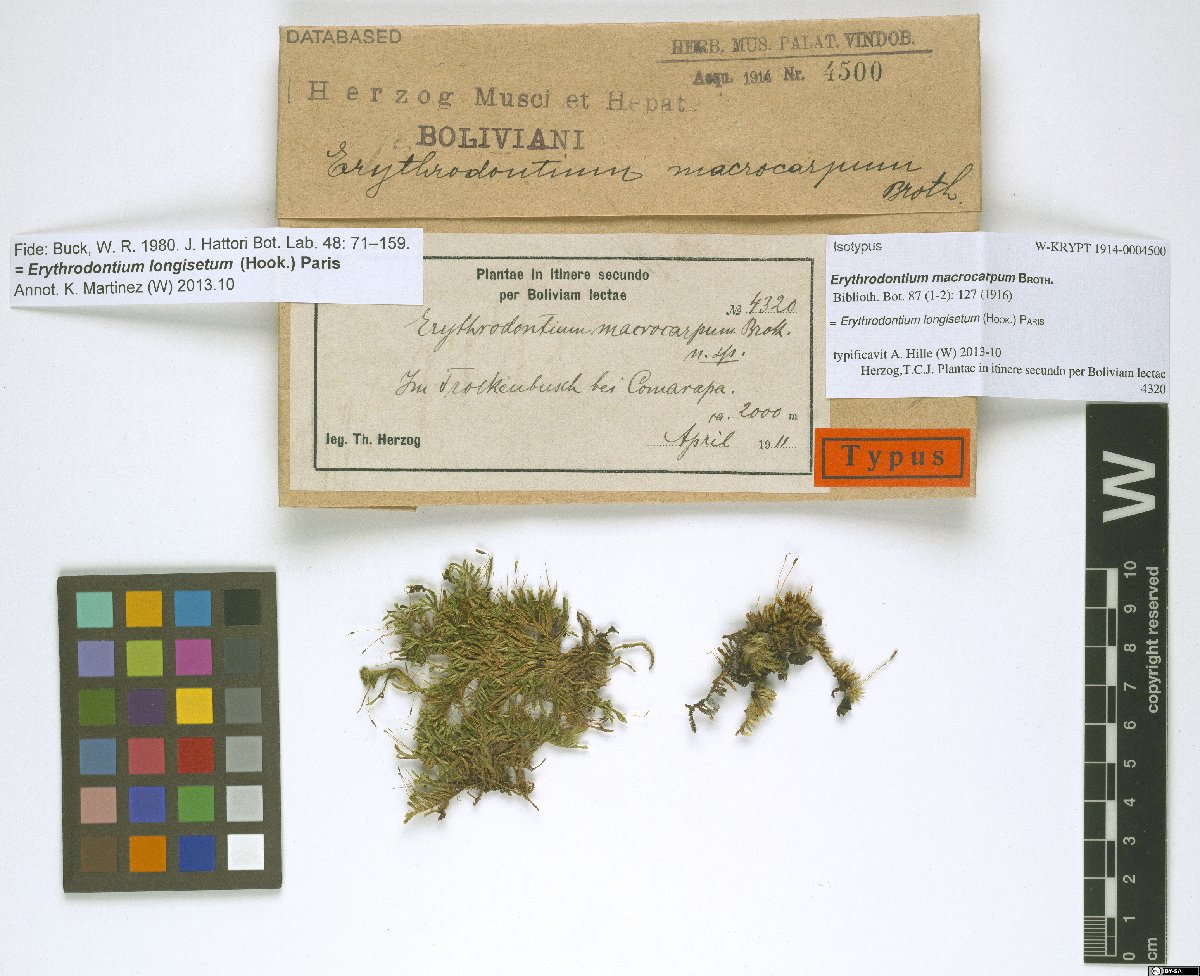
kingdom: Plantae
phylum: Bryophyta
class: Bryopsida
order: Hypnales
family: Entodontaceae
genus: Erythrodontium
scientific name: Erythrodontium longisetum
